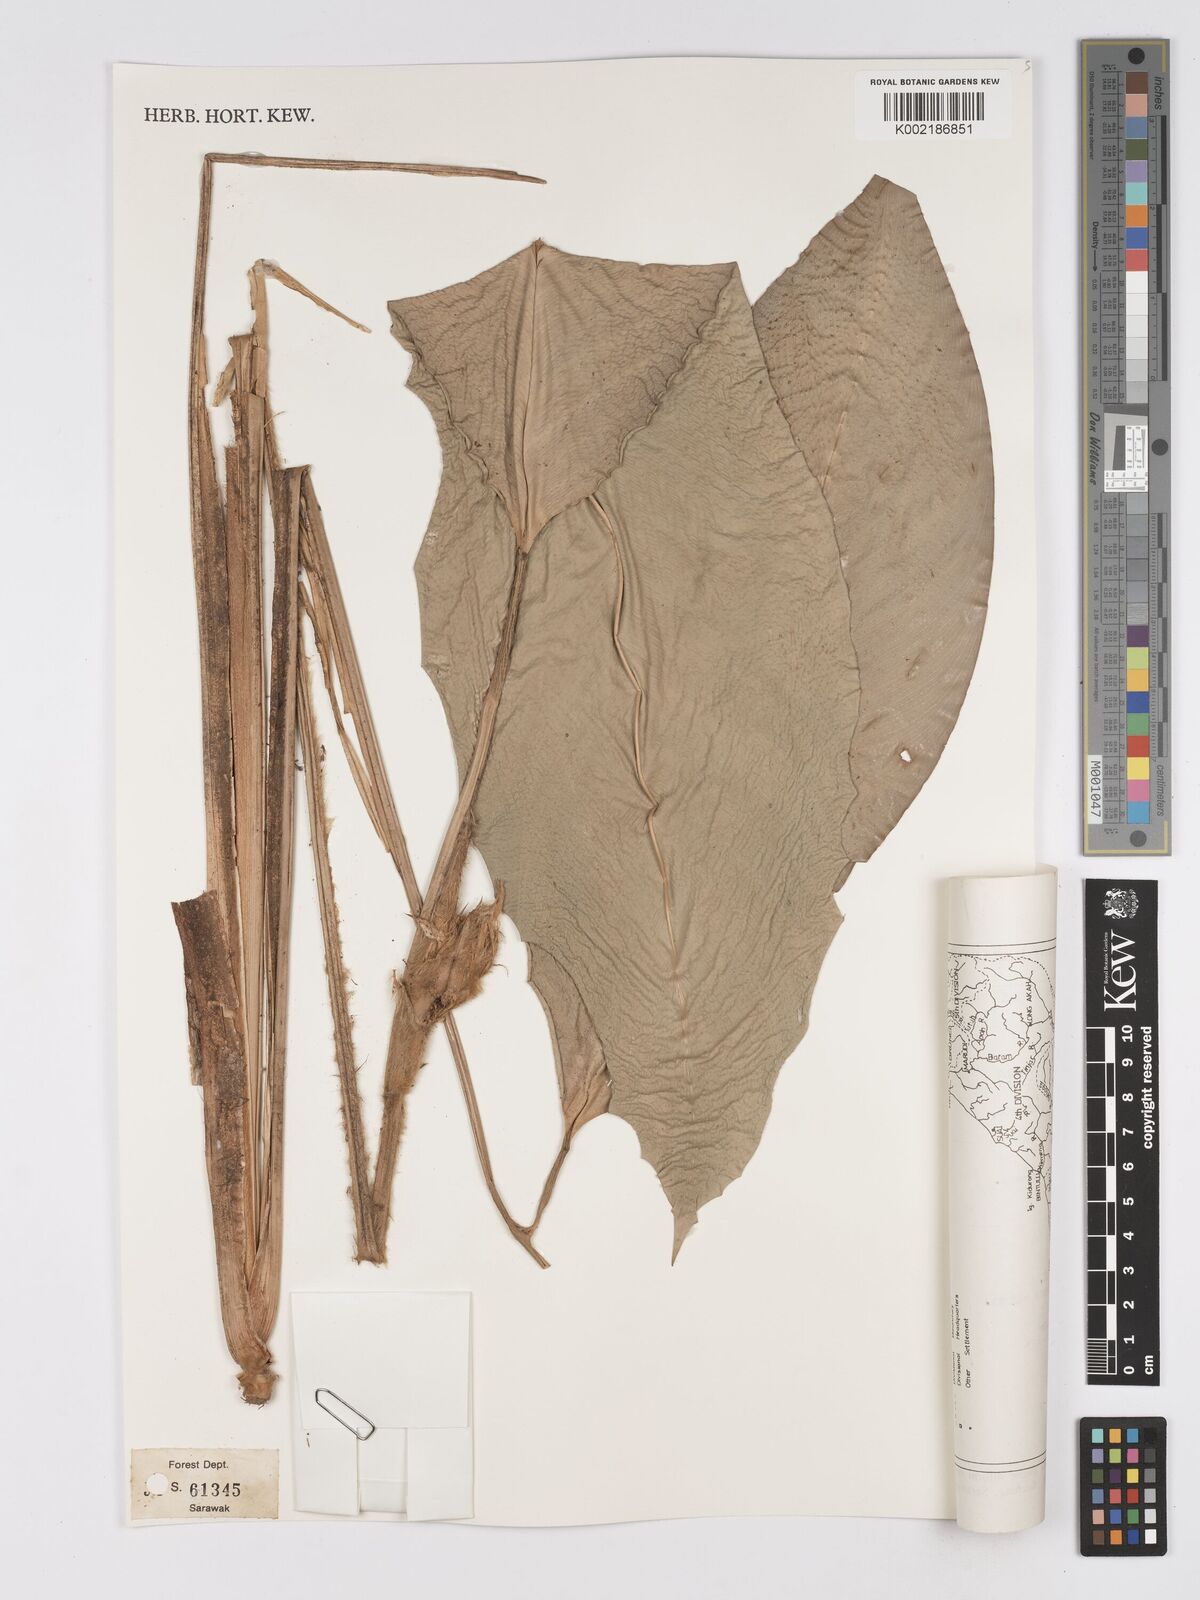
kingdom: Plantae
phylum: Tracheophyta
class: Liliopsida
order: Zingiberales
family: Marantaceae
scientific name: Marantaceae
